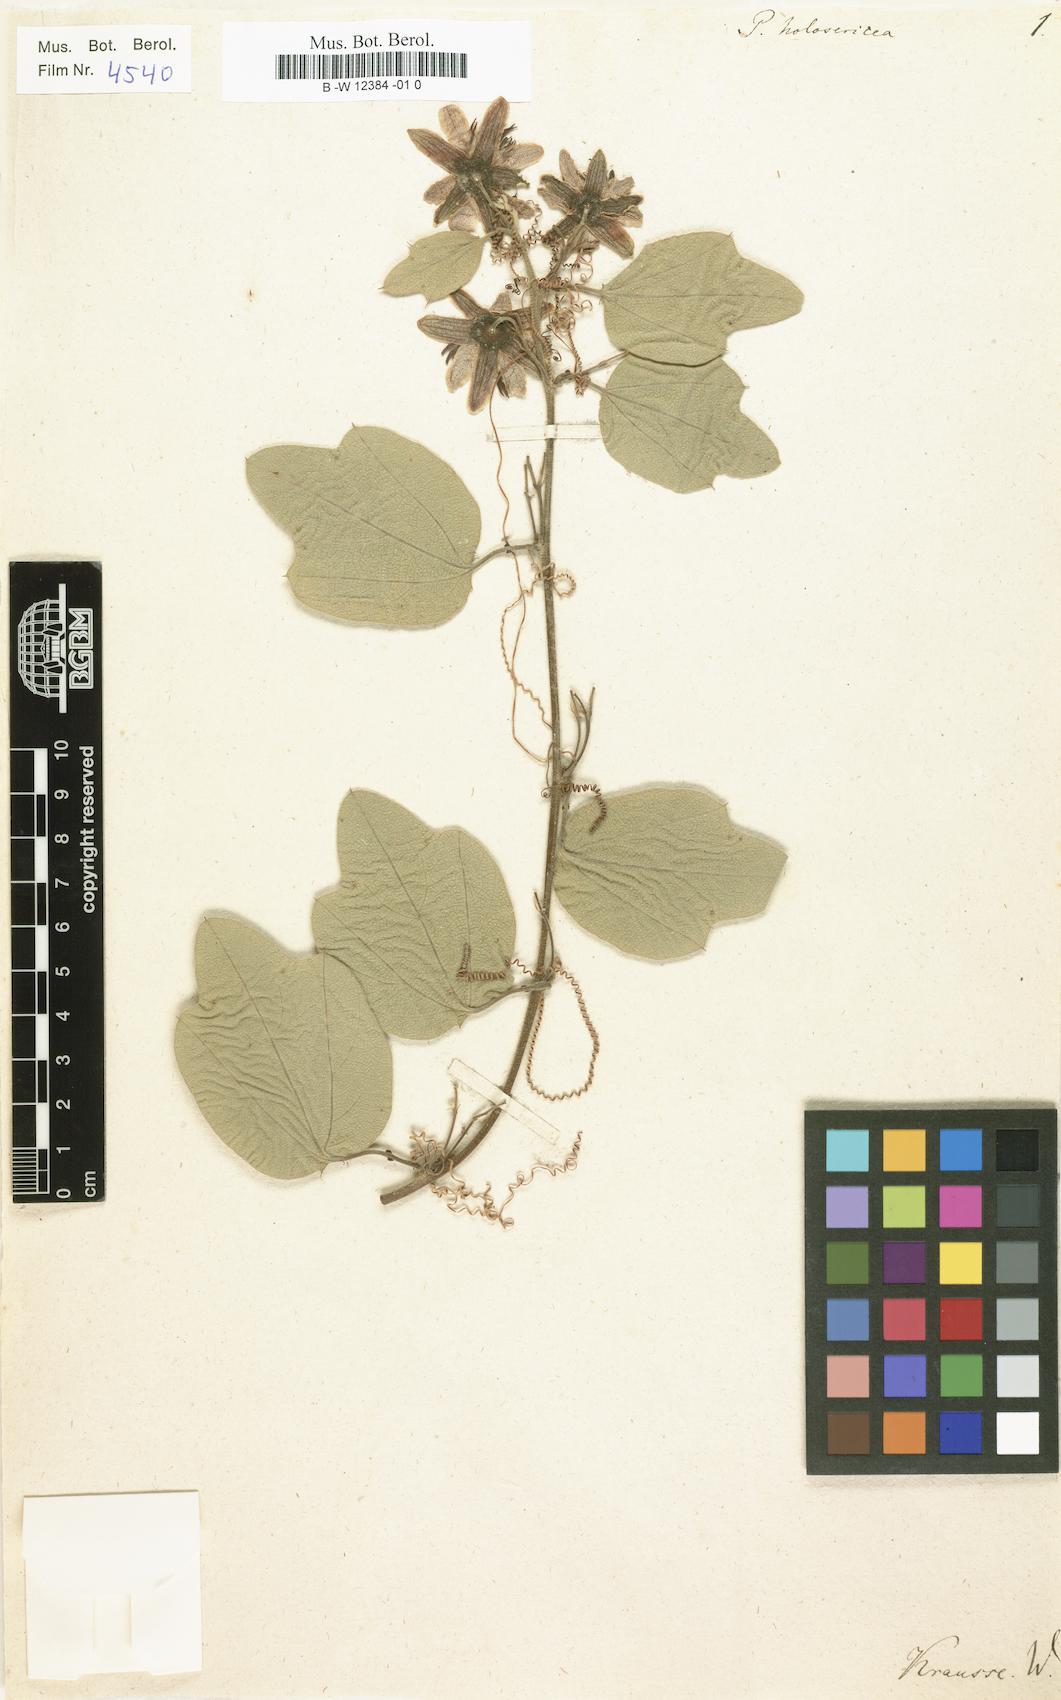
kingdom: Plantae
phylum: Tracheophyta
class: Magnoliopsida
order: Malpighiales
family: Passifloraceae
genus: Passiflora
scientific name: Passiflora holosericea
